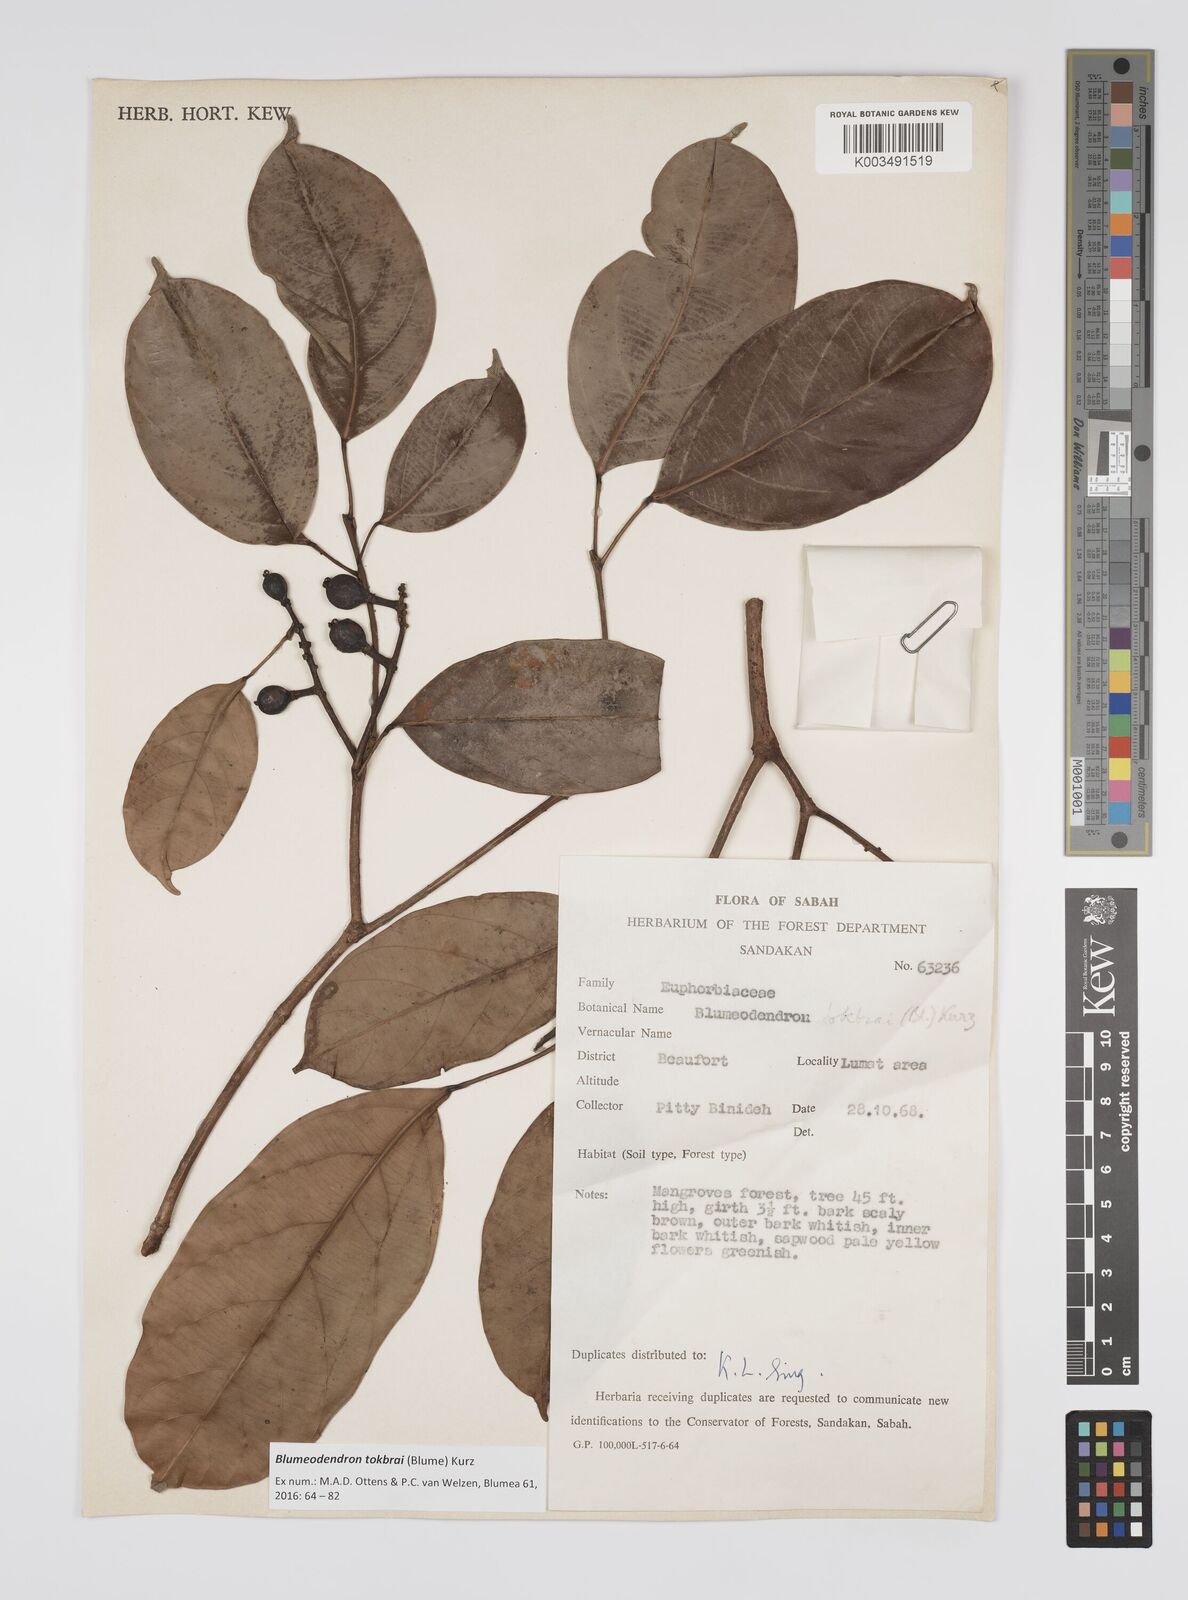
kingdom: Plantae
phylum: Tracheophyta
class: Magnoliopsida
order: Malpighiales
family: Euphorbiaceae
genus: Blumeodendron
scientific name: Blumeodendron tokbrai
